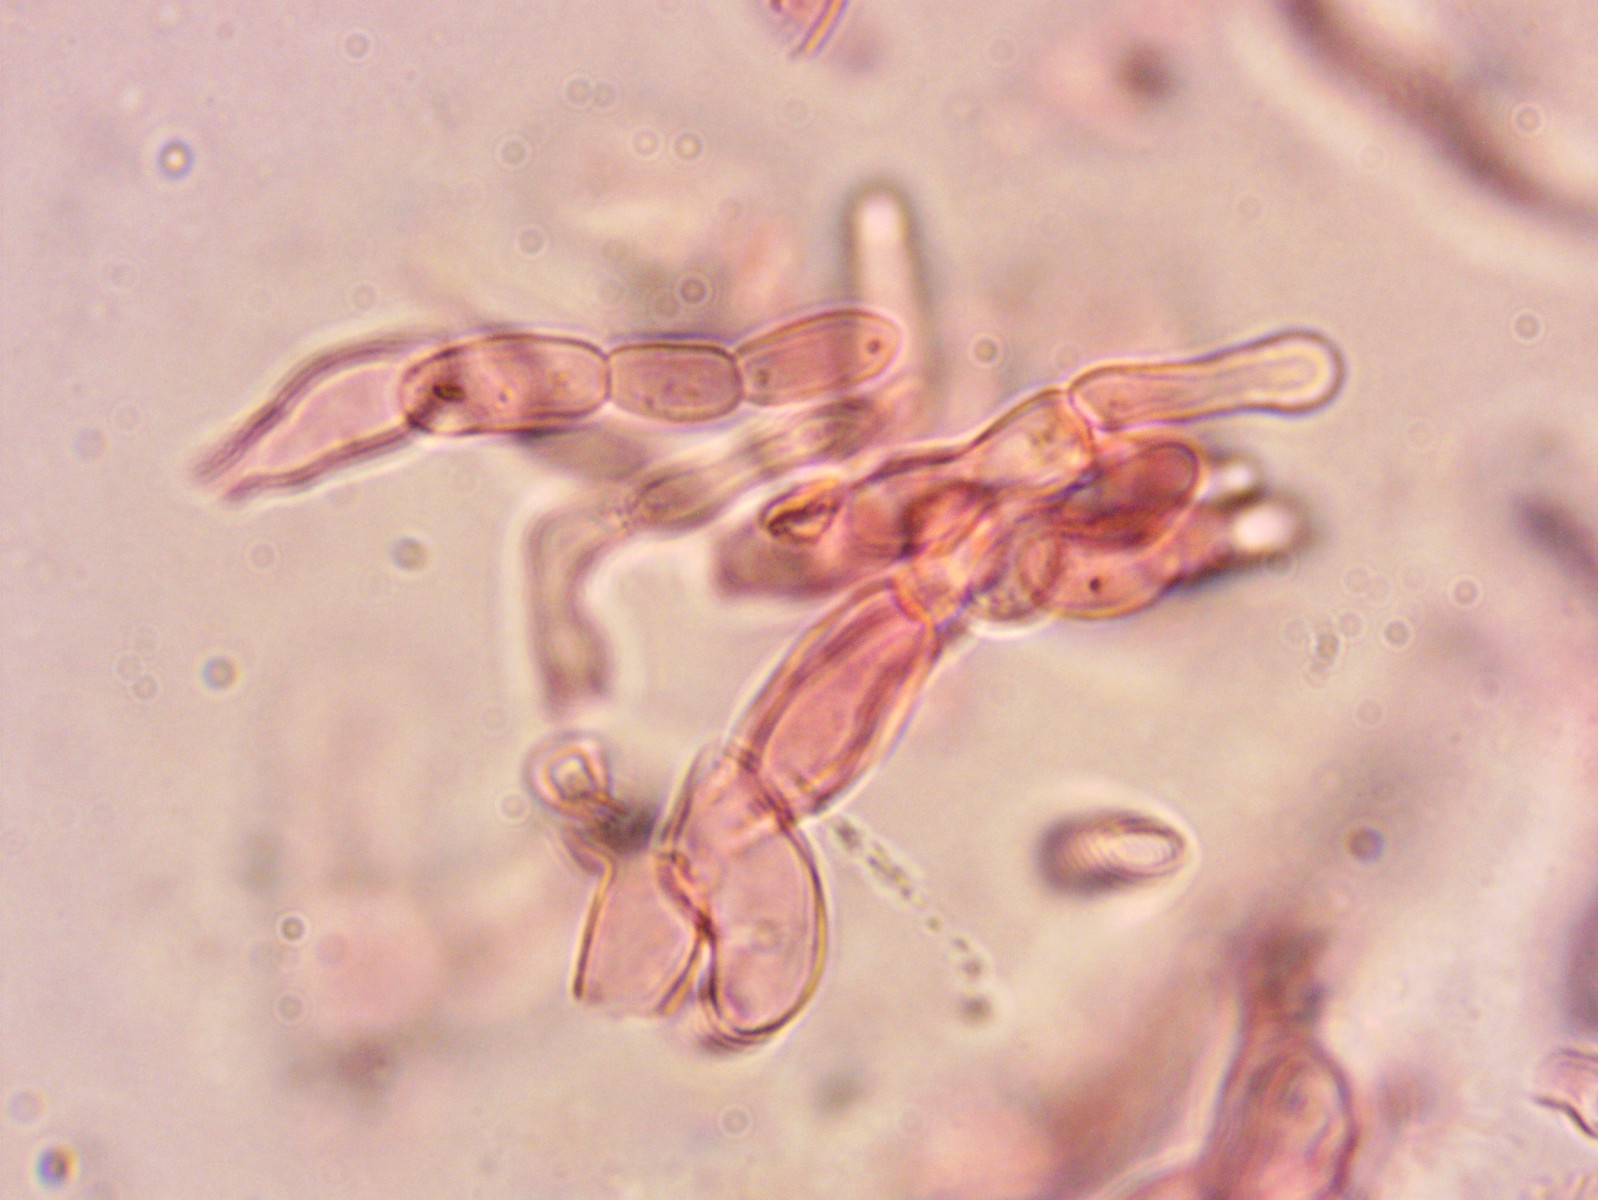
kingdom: Fungi
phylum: Basidiomycota
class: Agaricomycetes
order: Russulales
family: Russulaceae
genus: Russula
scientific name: Russula
